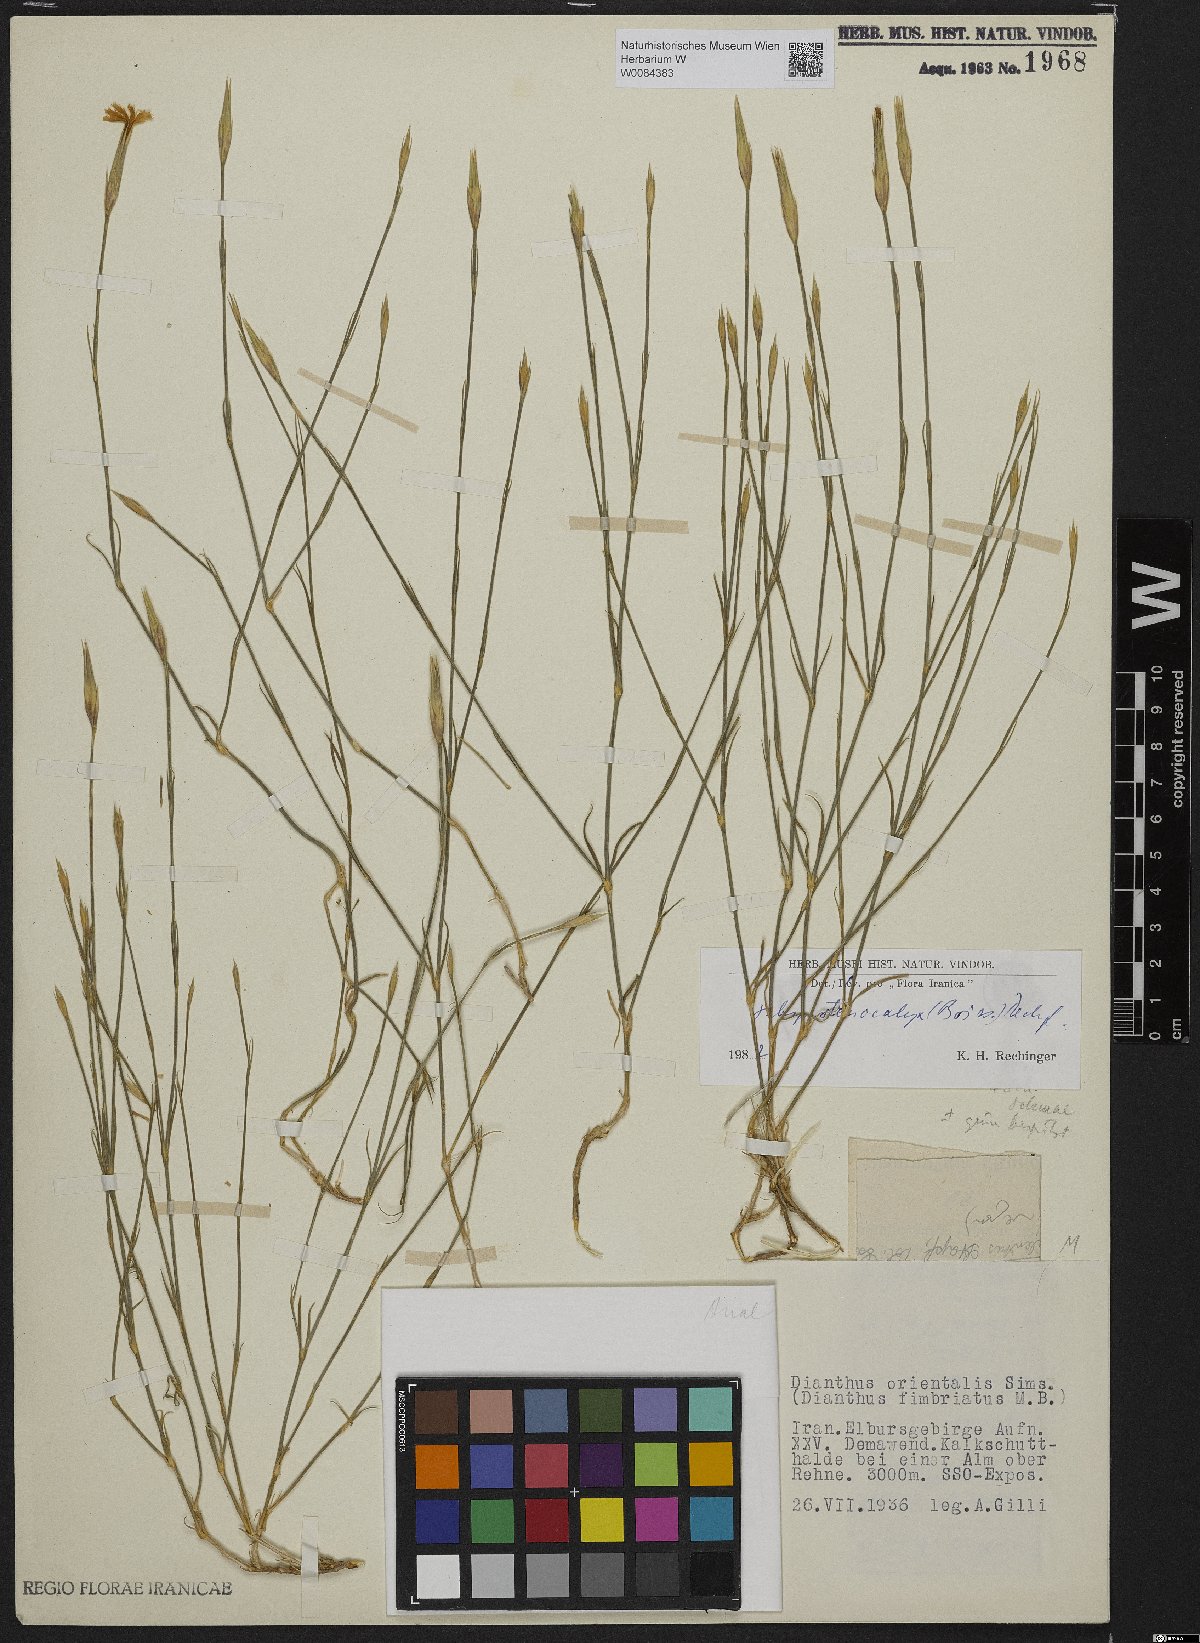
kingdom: Plantae
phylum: Tracheophyta
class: Magnoliopsida
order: Caryophyllales
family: Caryophyllaceae
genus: Dianthus
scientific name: Dianthus orientalis
